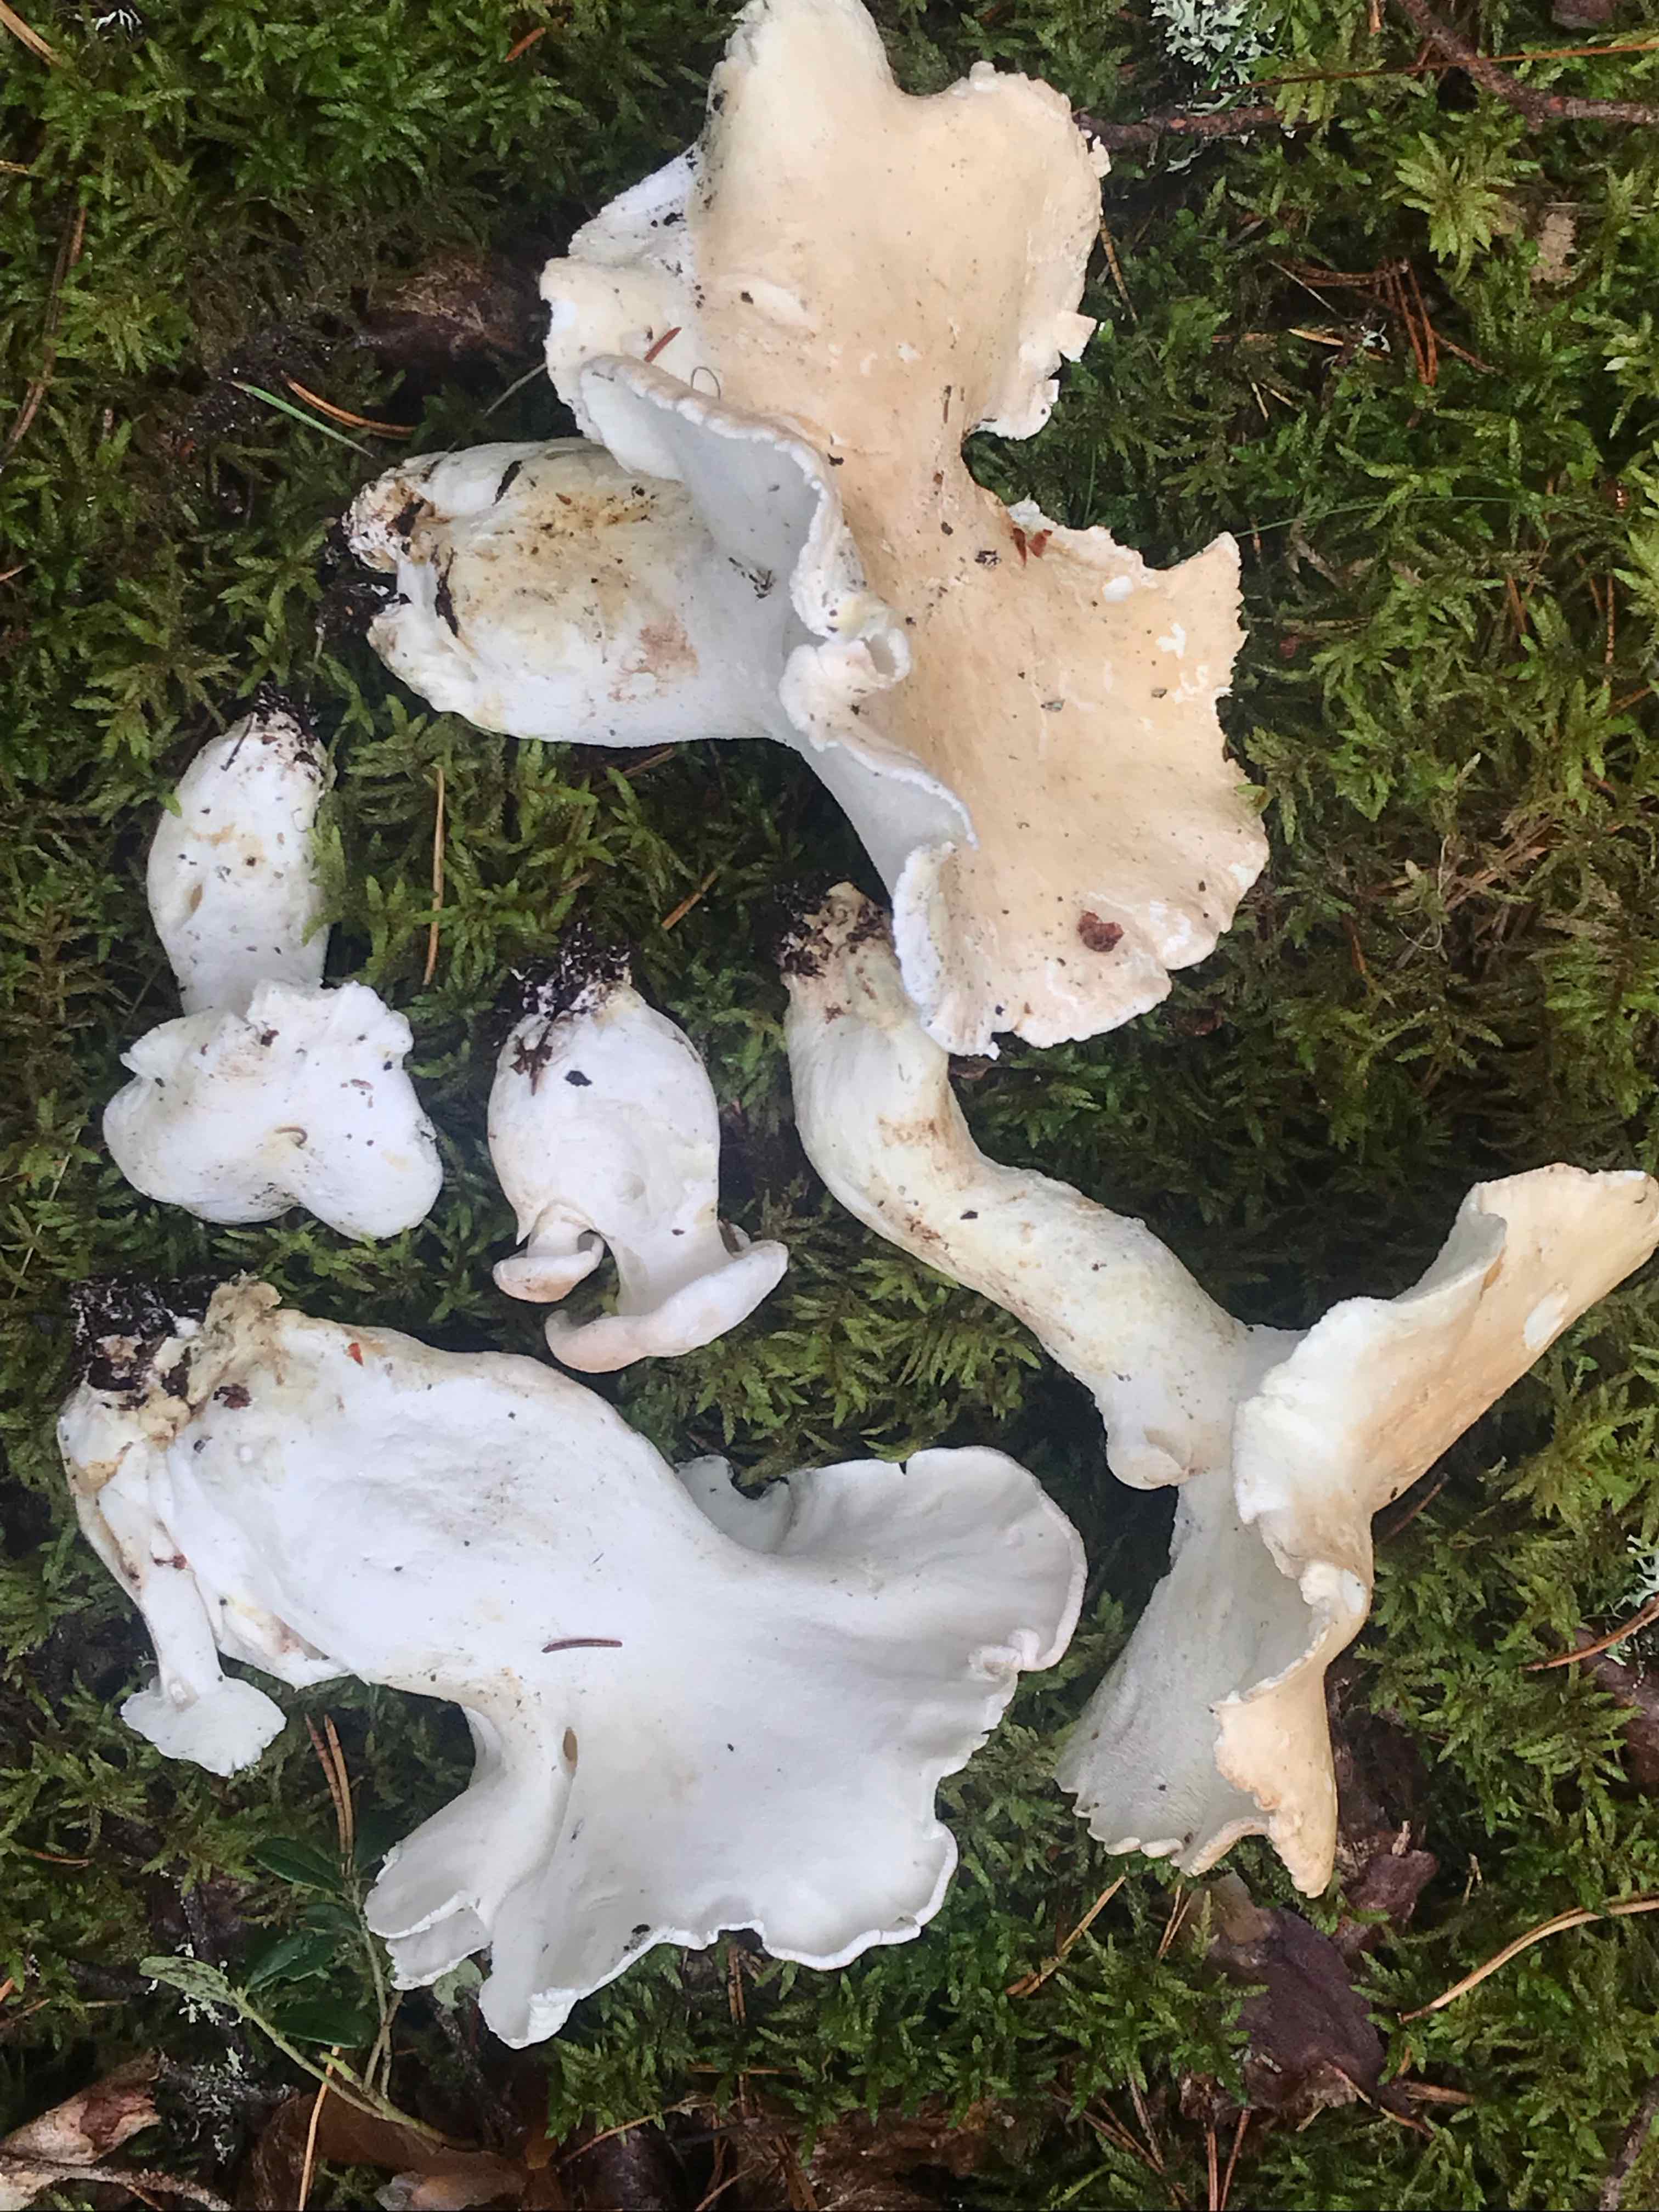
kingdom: Fungi
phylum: Basidiomycota
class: Agaricomycetes
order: Russulales
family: Albatrellaceae
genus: Albatrellus
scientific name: Albatrellus
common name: fåreporesvamp
